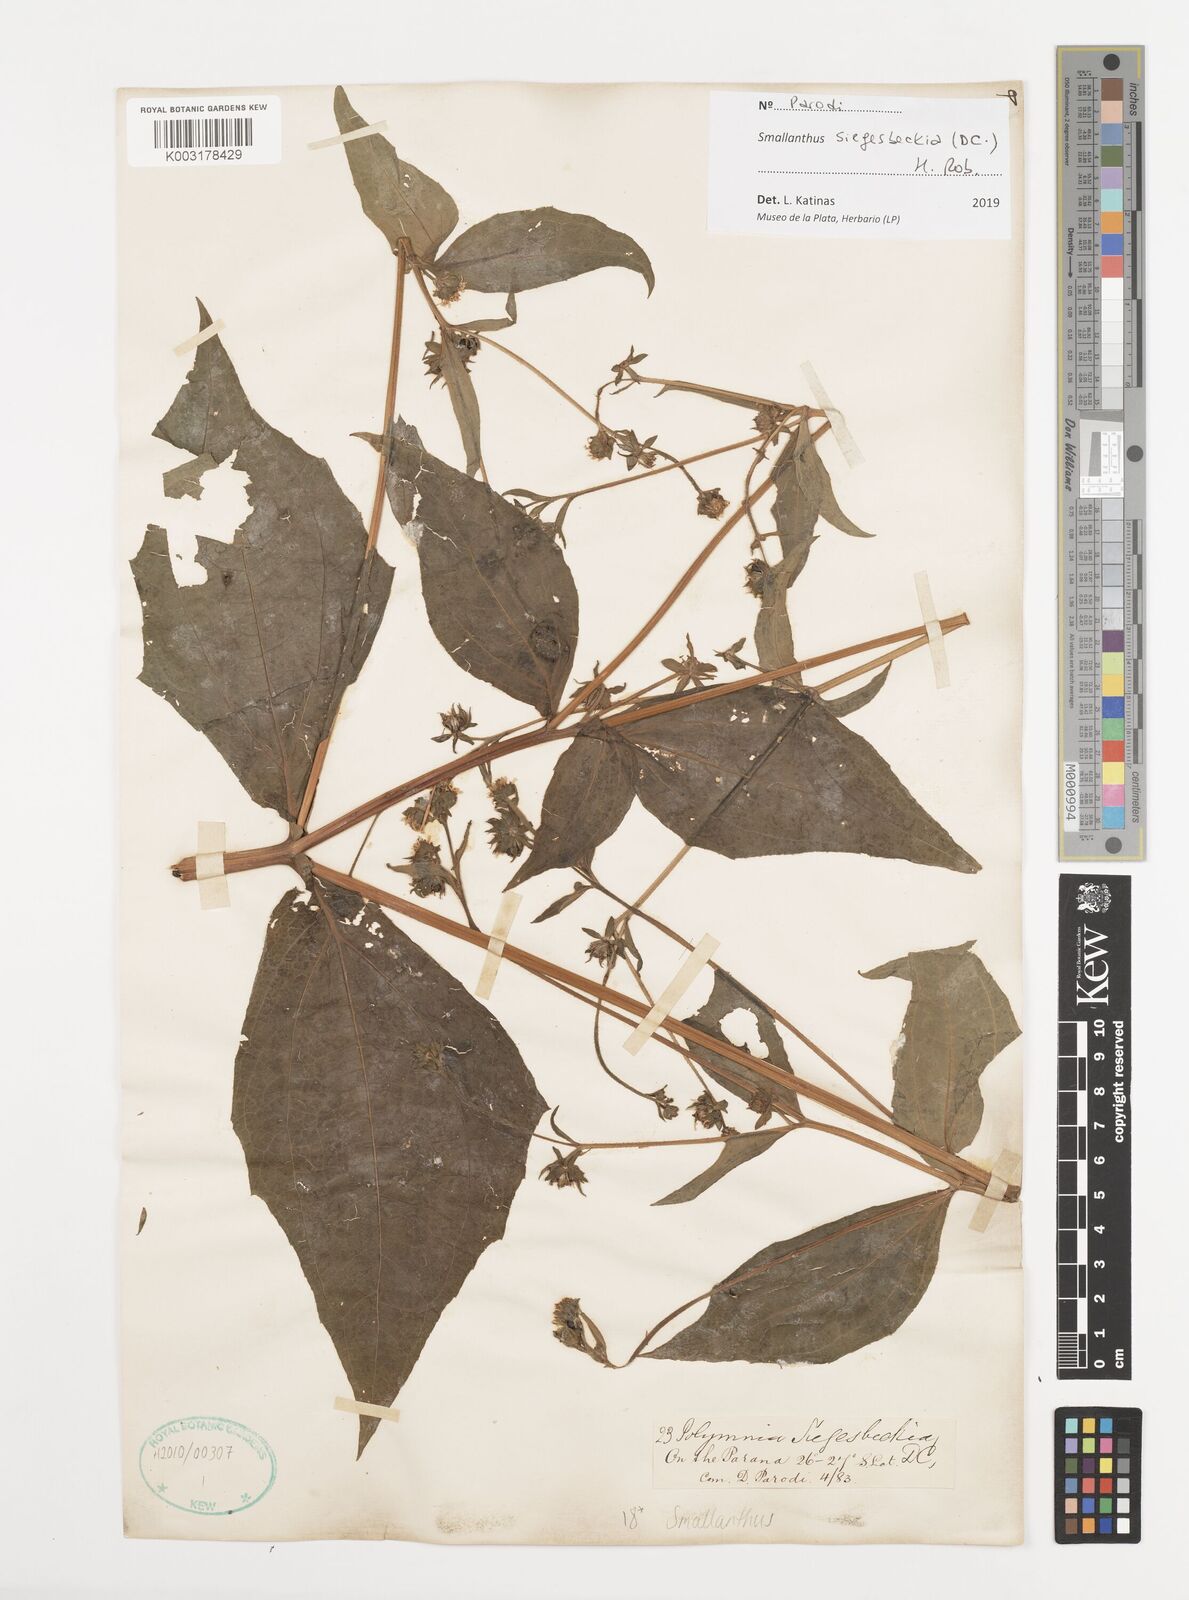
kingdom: Plantae
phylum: Tracheophyta
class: Magnoliopsida
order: Asterales
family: Asteraceae
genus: Smallanthus
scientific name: Smallanthus siegesbeckius
